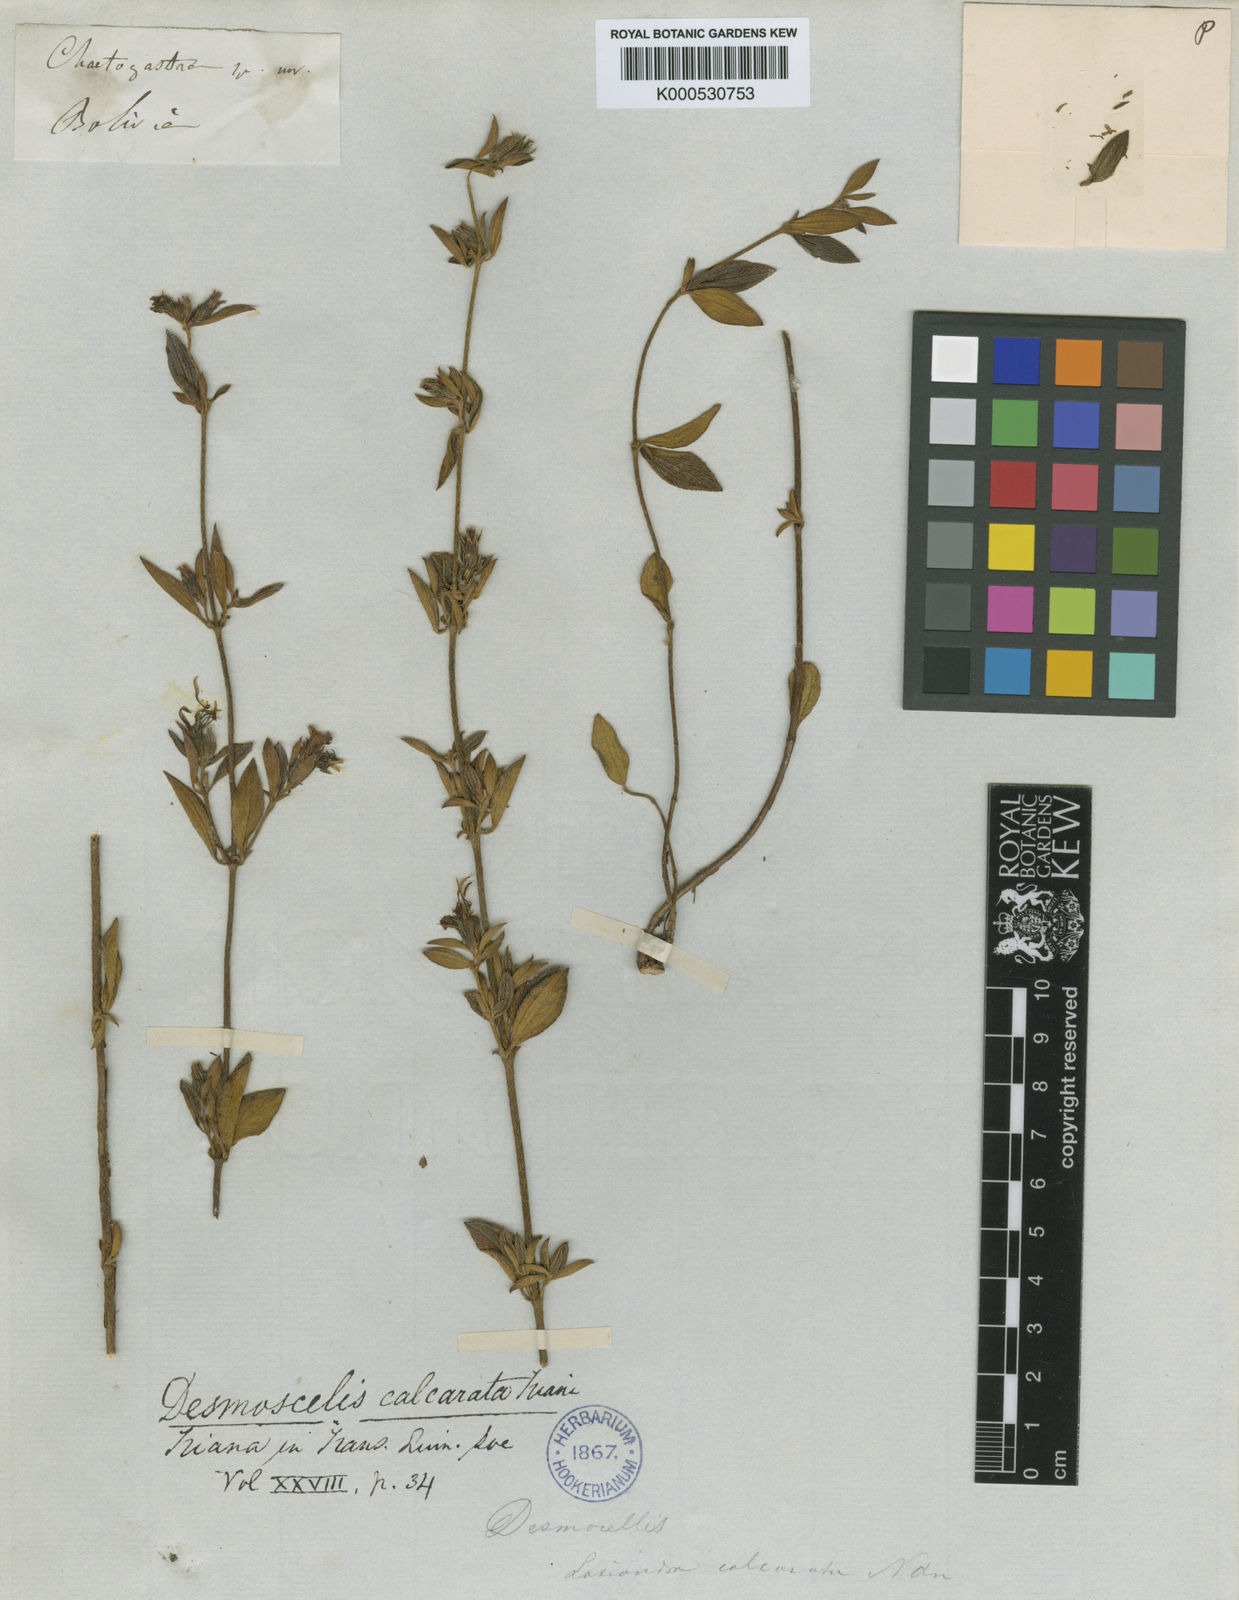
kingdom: Plantae
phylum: Tracheophyta
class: Magnoliopsida
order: Myrtales
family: Melastomataceae
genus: Desmoscelis
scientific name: Desmoscelis calcarata
